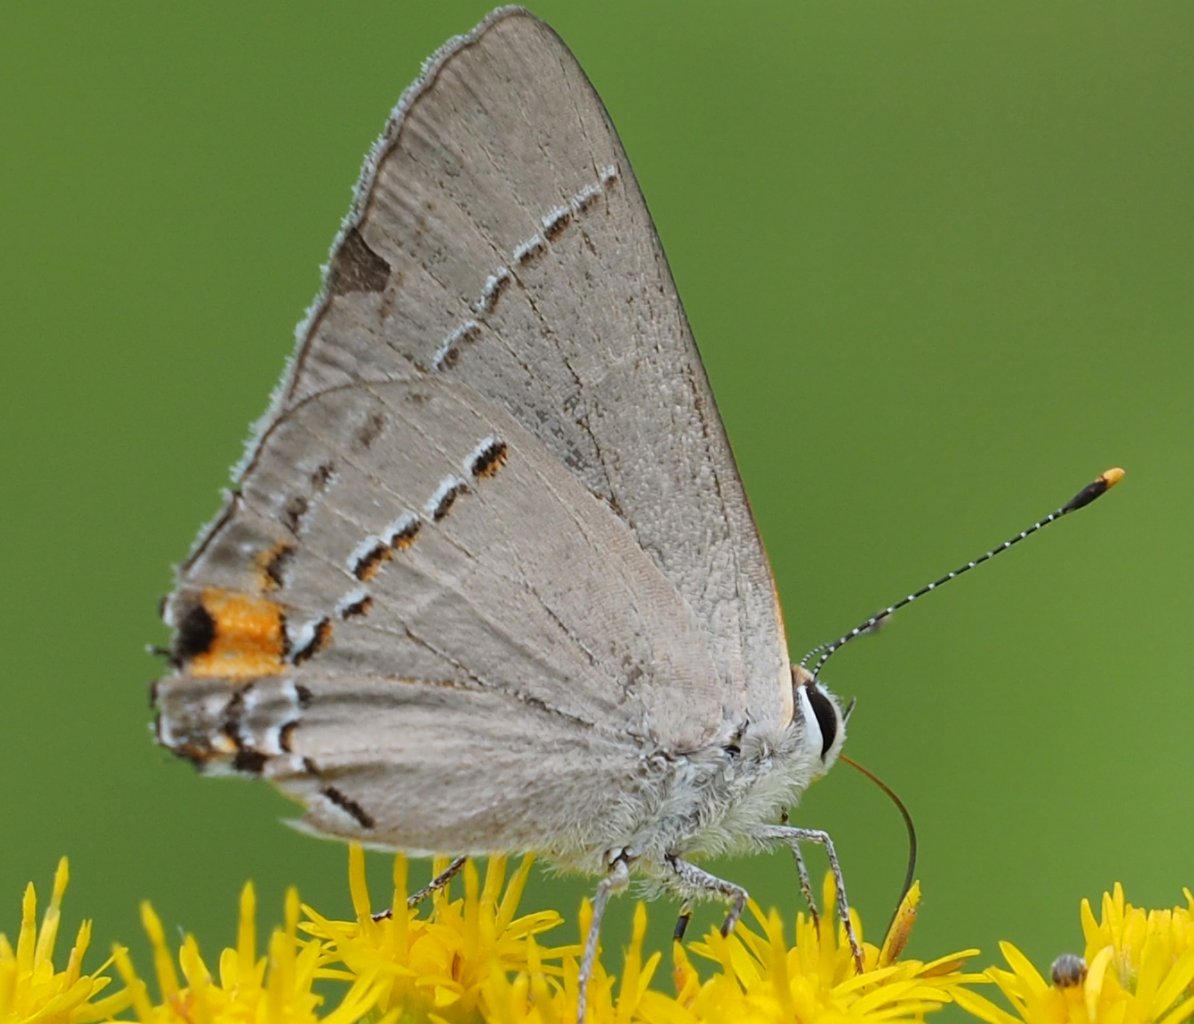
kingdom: Animalia
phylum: Arthropoda
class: Insecta
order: Lepidoptera
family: Lycaenidae
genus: Strymon
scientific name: Strymon melinus
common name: Gray Hairstreak
